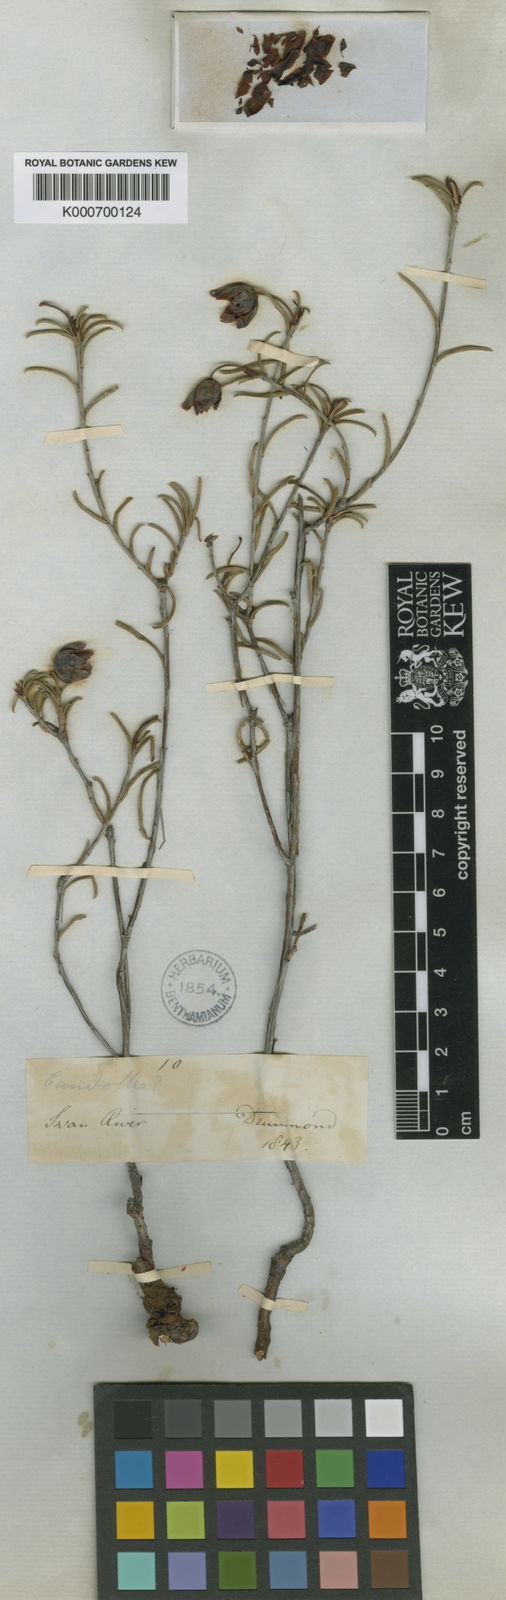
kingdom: Plantae
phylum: Tracheophyta
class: Magnoliopsida
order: Dilleniales
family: Dilleniaceae
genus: Hibbertia
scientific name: Hibbertia nutans
